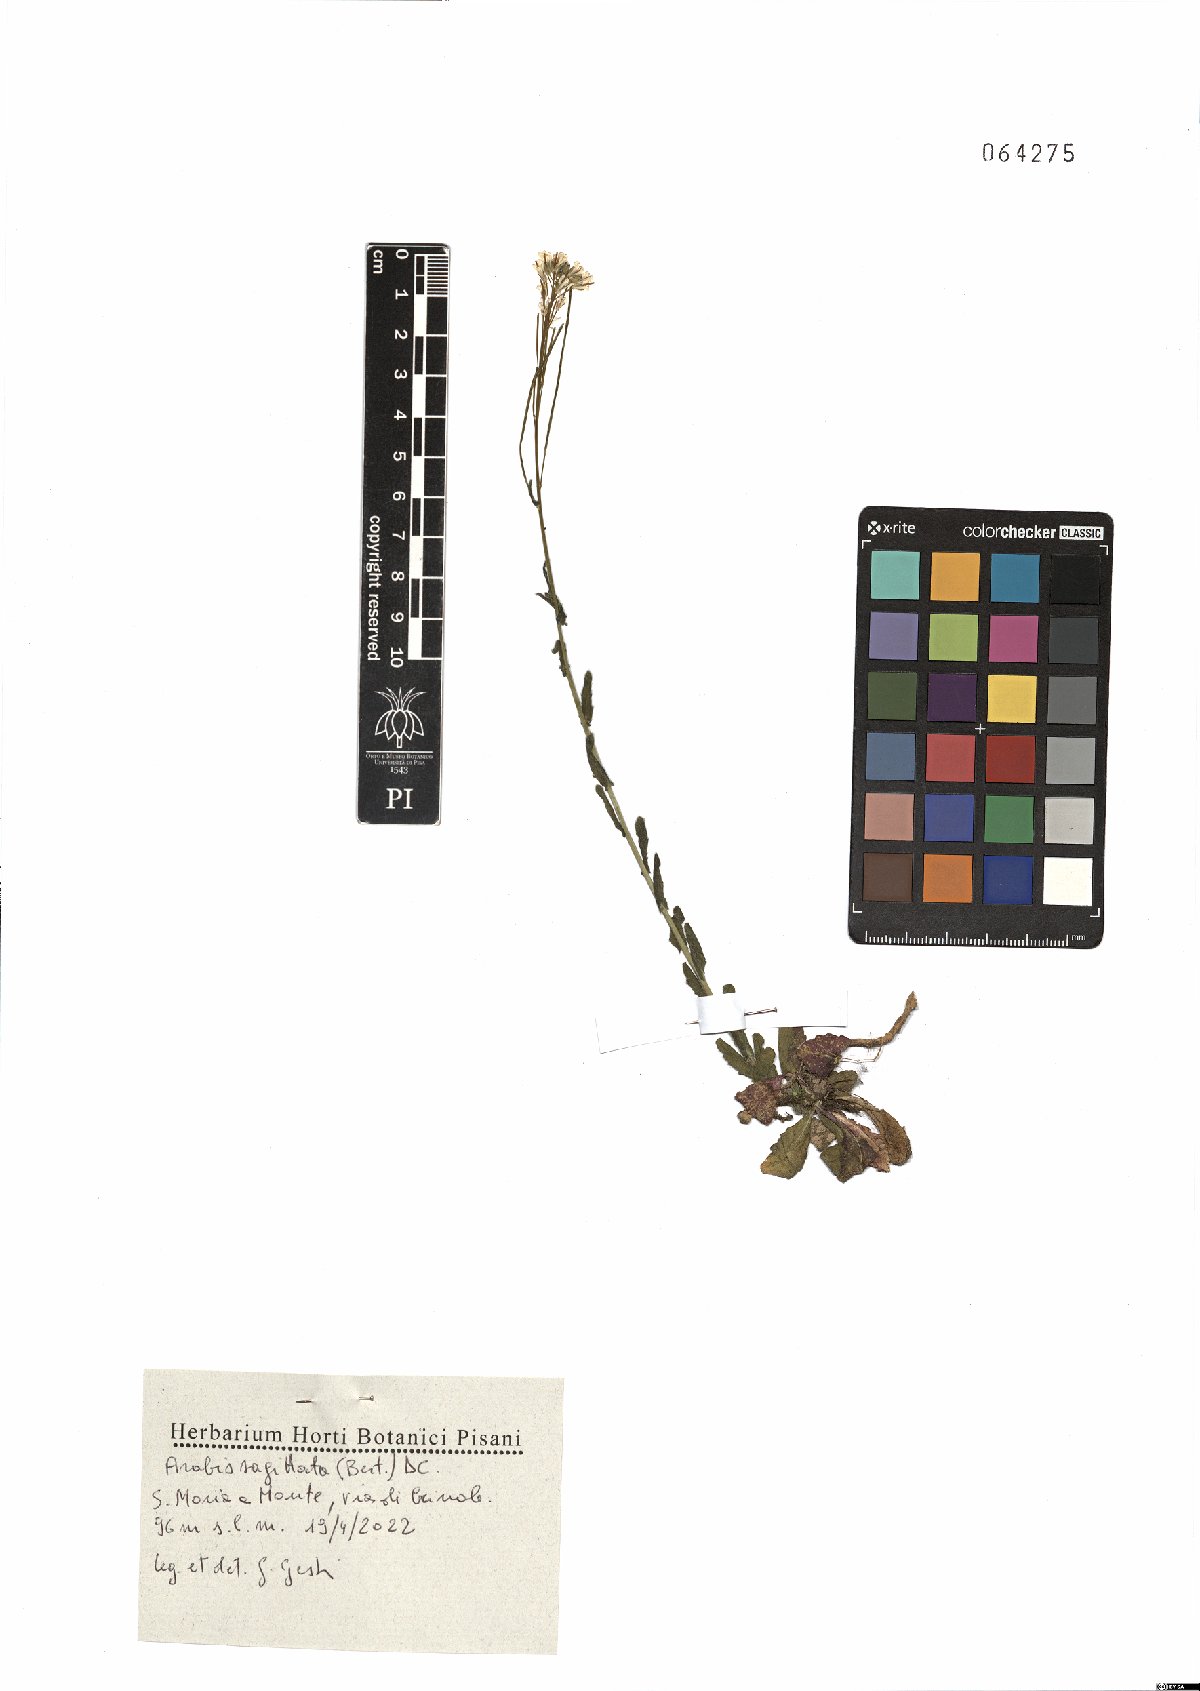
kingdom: Plantae
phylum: Tracheophyta
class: Magnoliopsida
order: Brassicales
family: Brassicaceae
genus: Arabis
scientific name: Arabis sagittata
